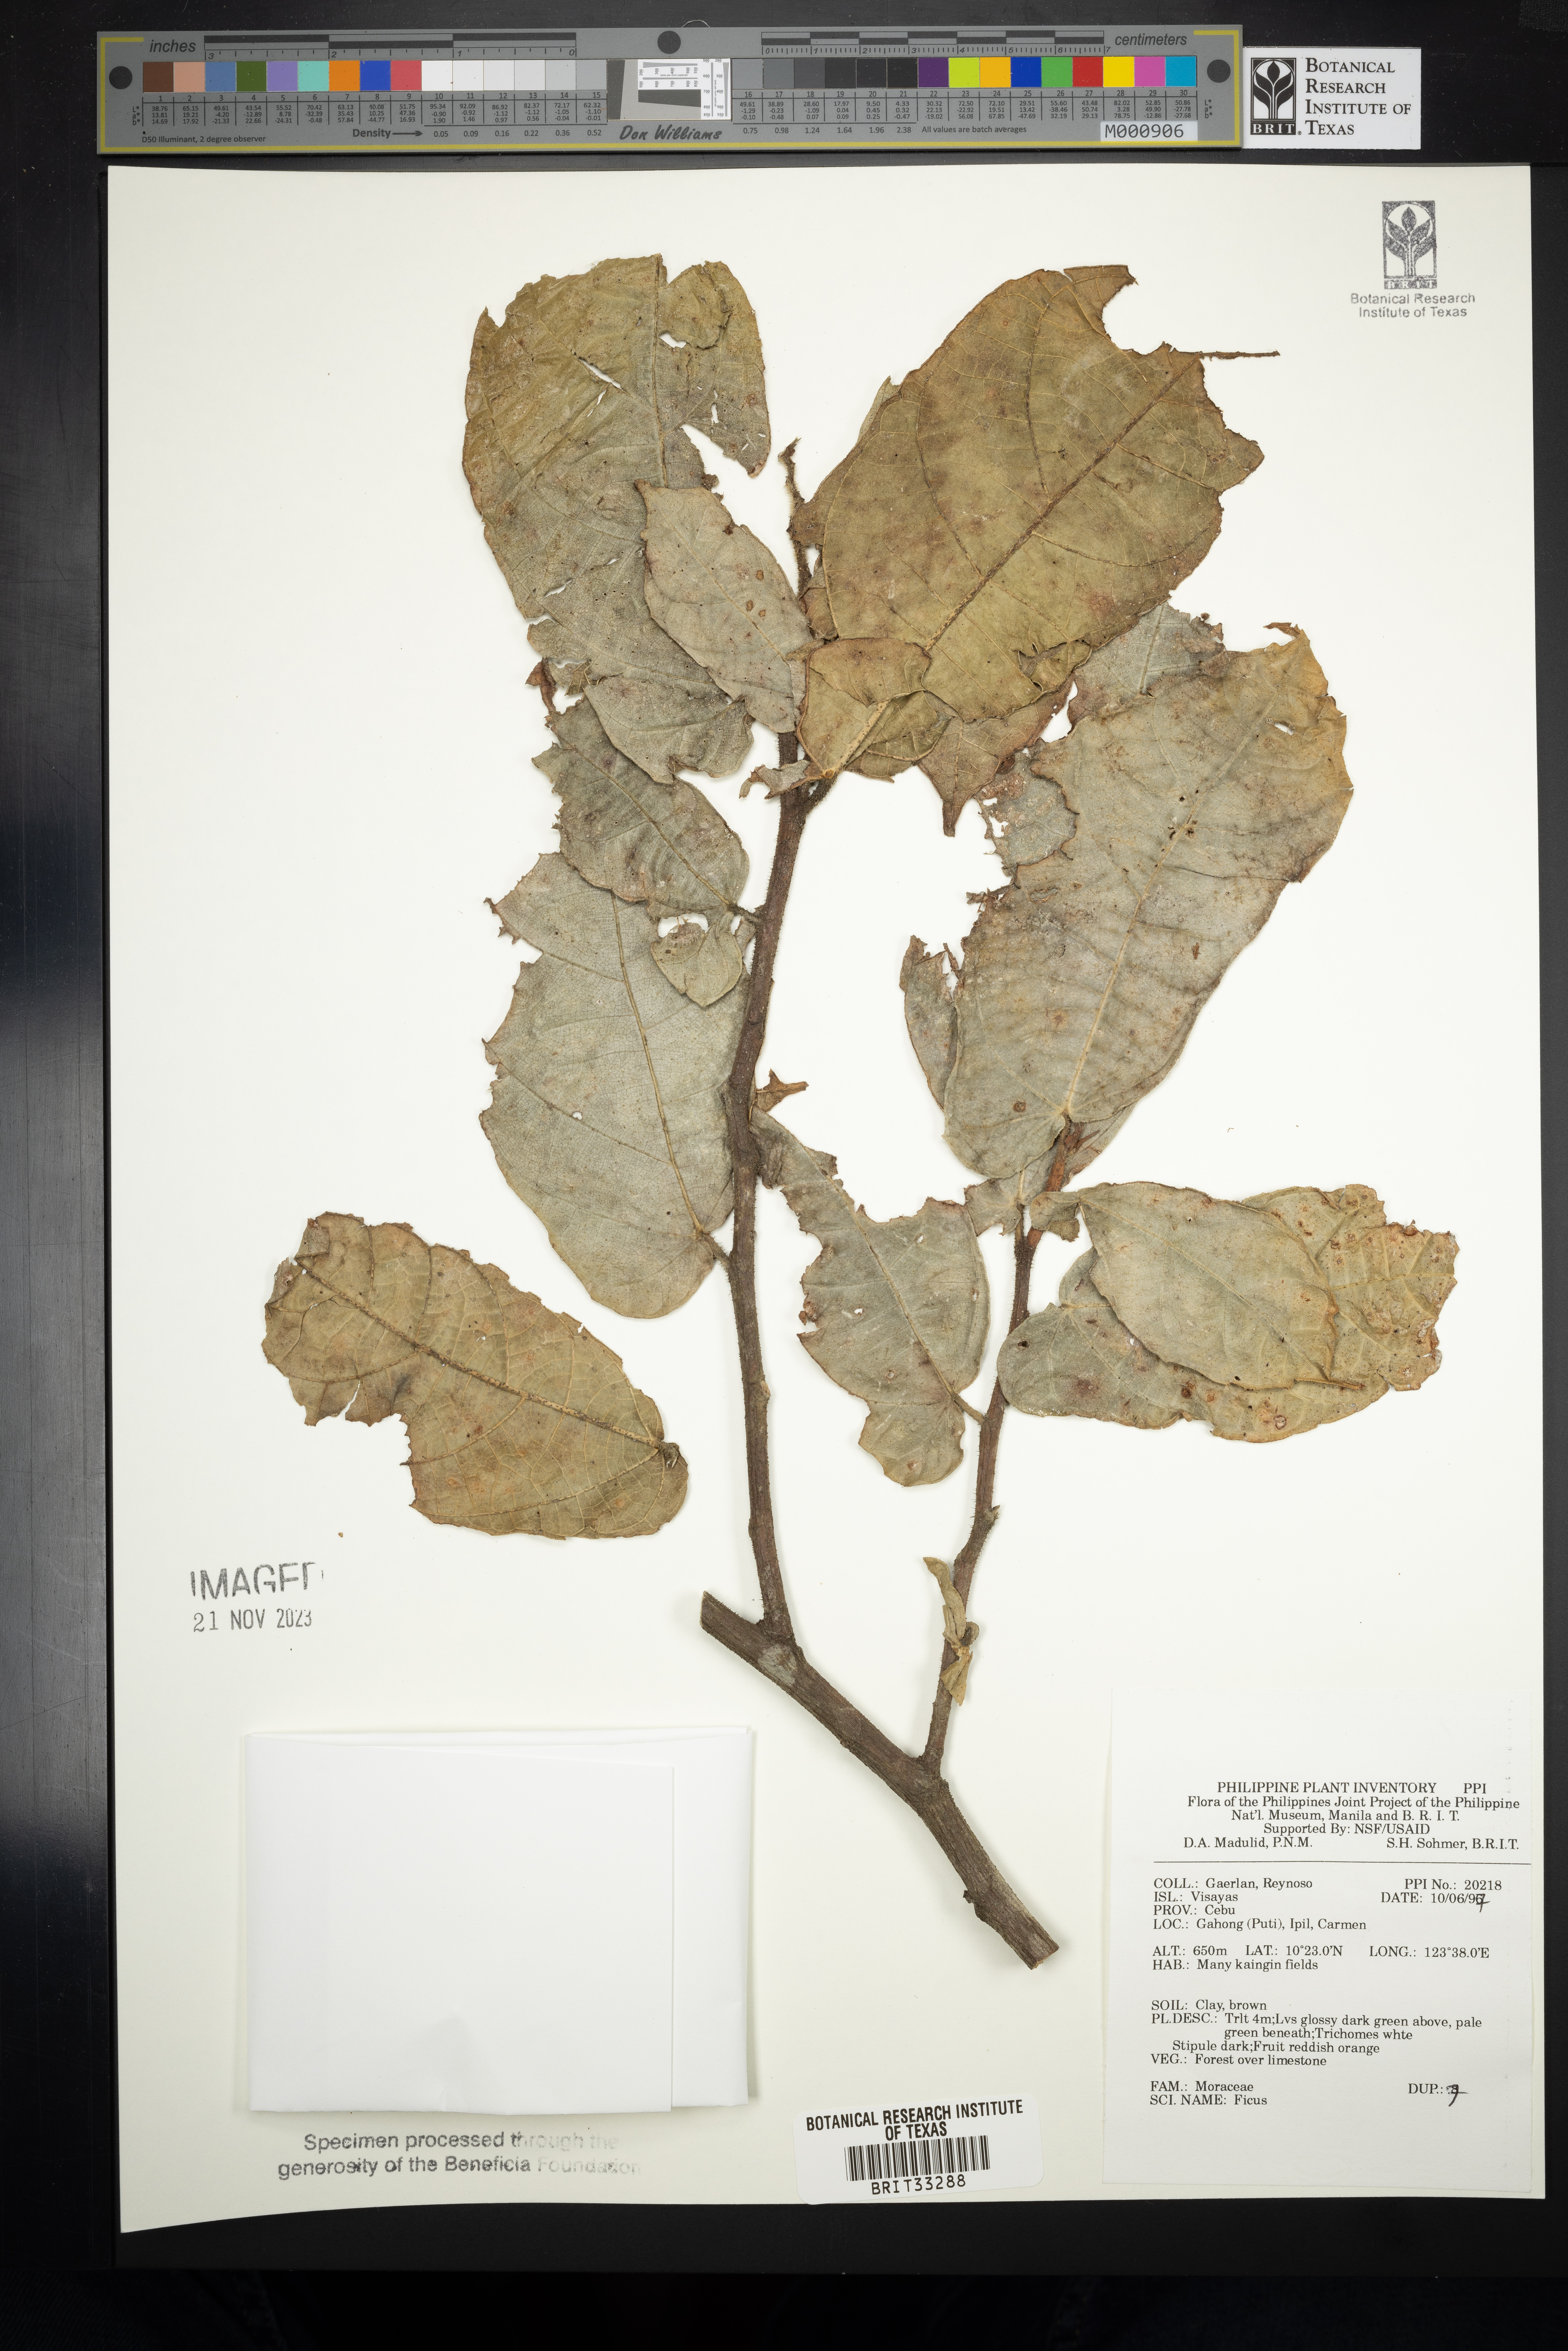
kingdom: Plantae
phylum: Tracheophyta
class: Magnoliopsida
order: Rosales
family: Moraceae
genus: Ficus
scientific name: Ficus
